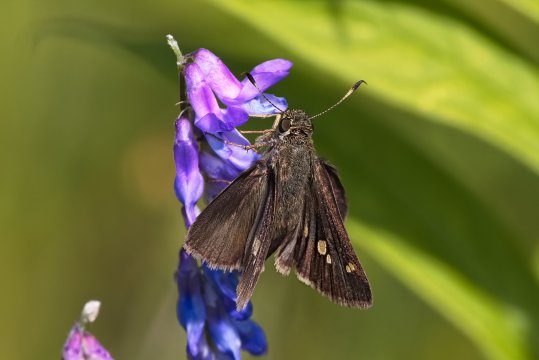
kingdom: Animalia
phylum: Arthropoda
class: Insecta
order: Lepidoptera
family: Hesperiidae
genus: Vernia
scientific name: Vernia verna
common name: Little Glassywing
